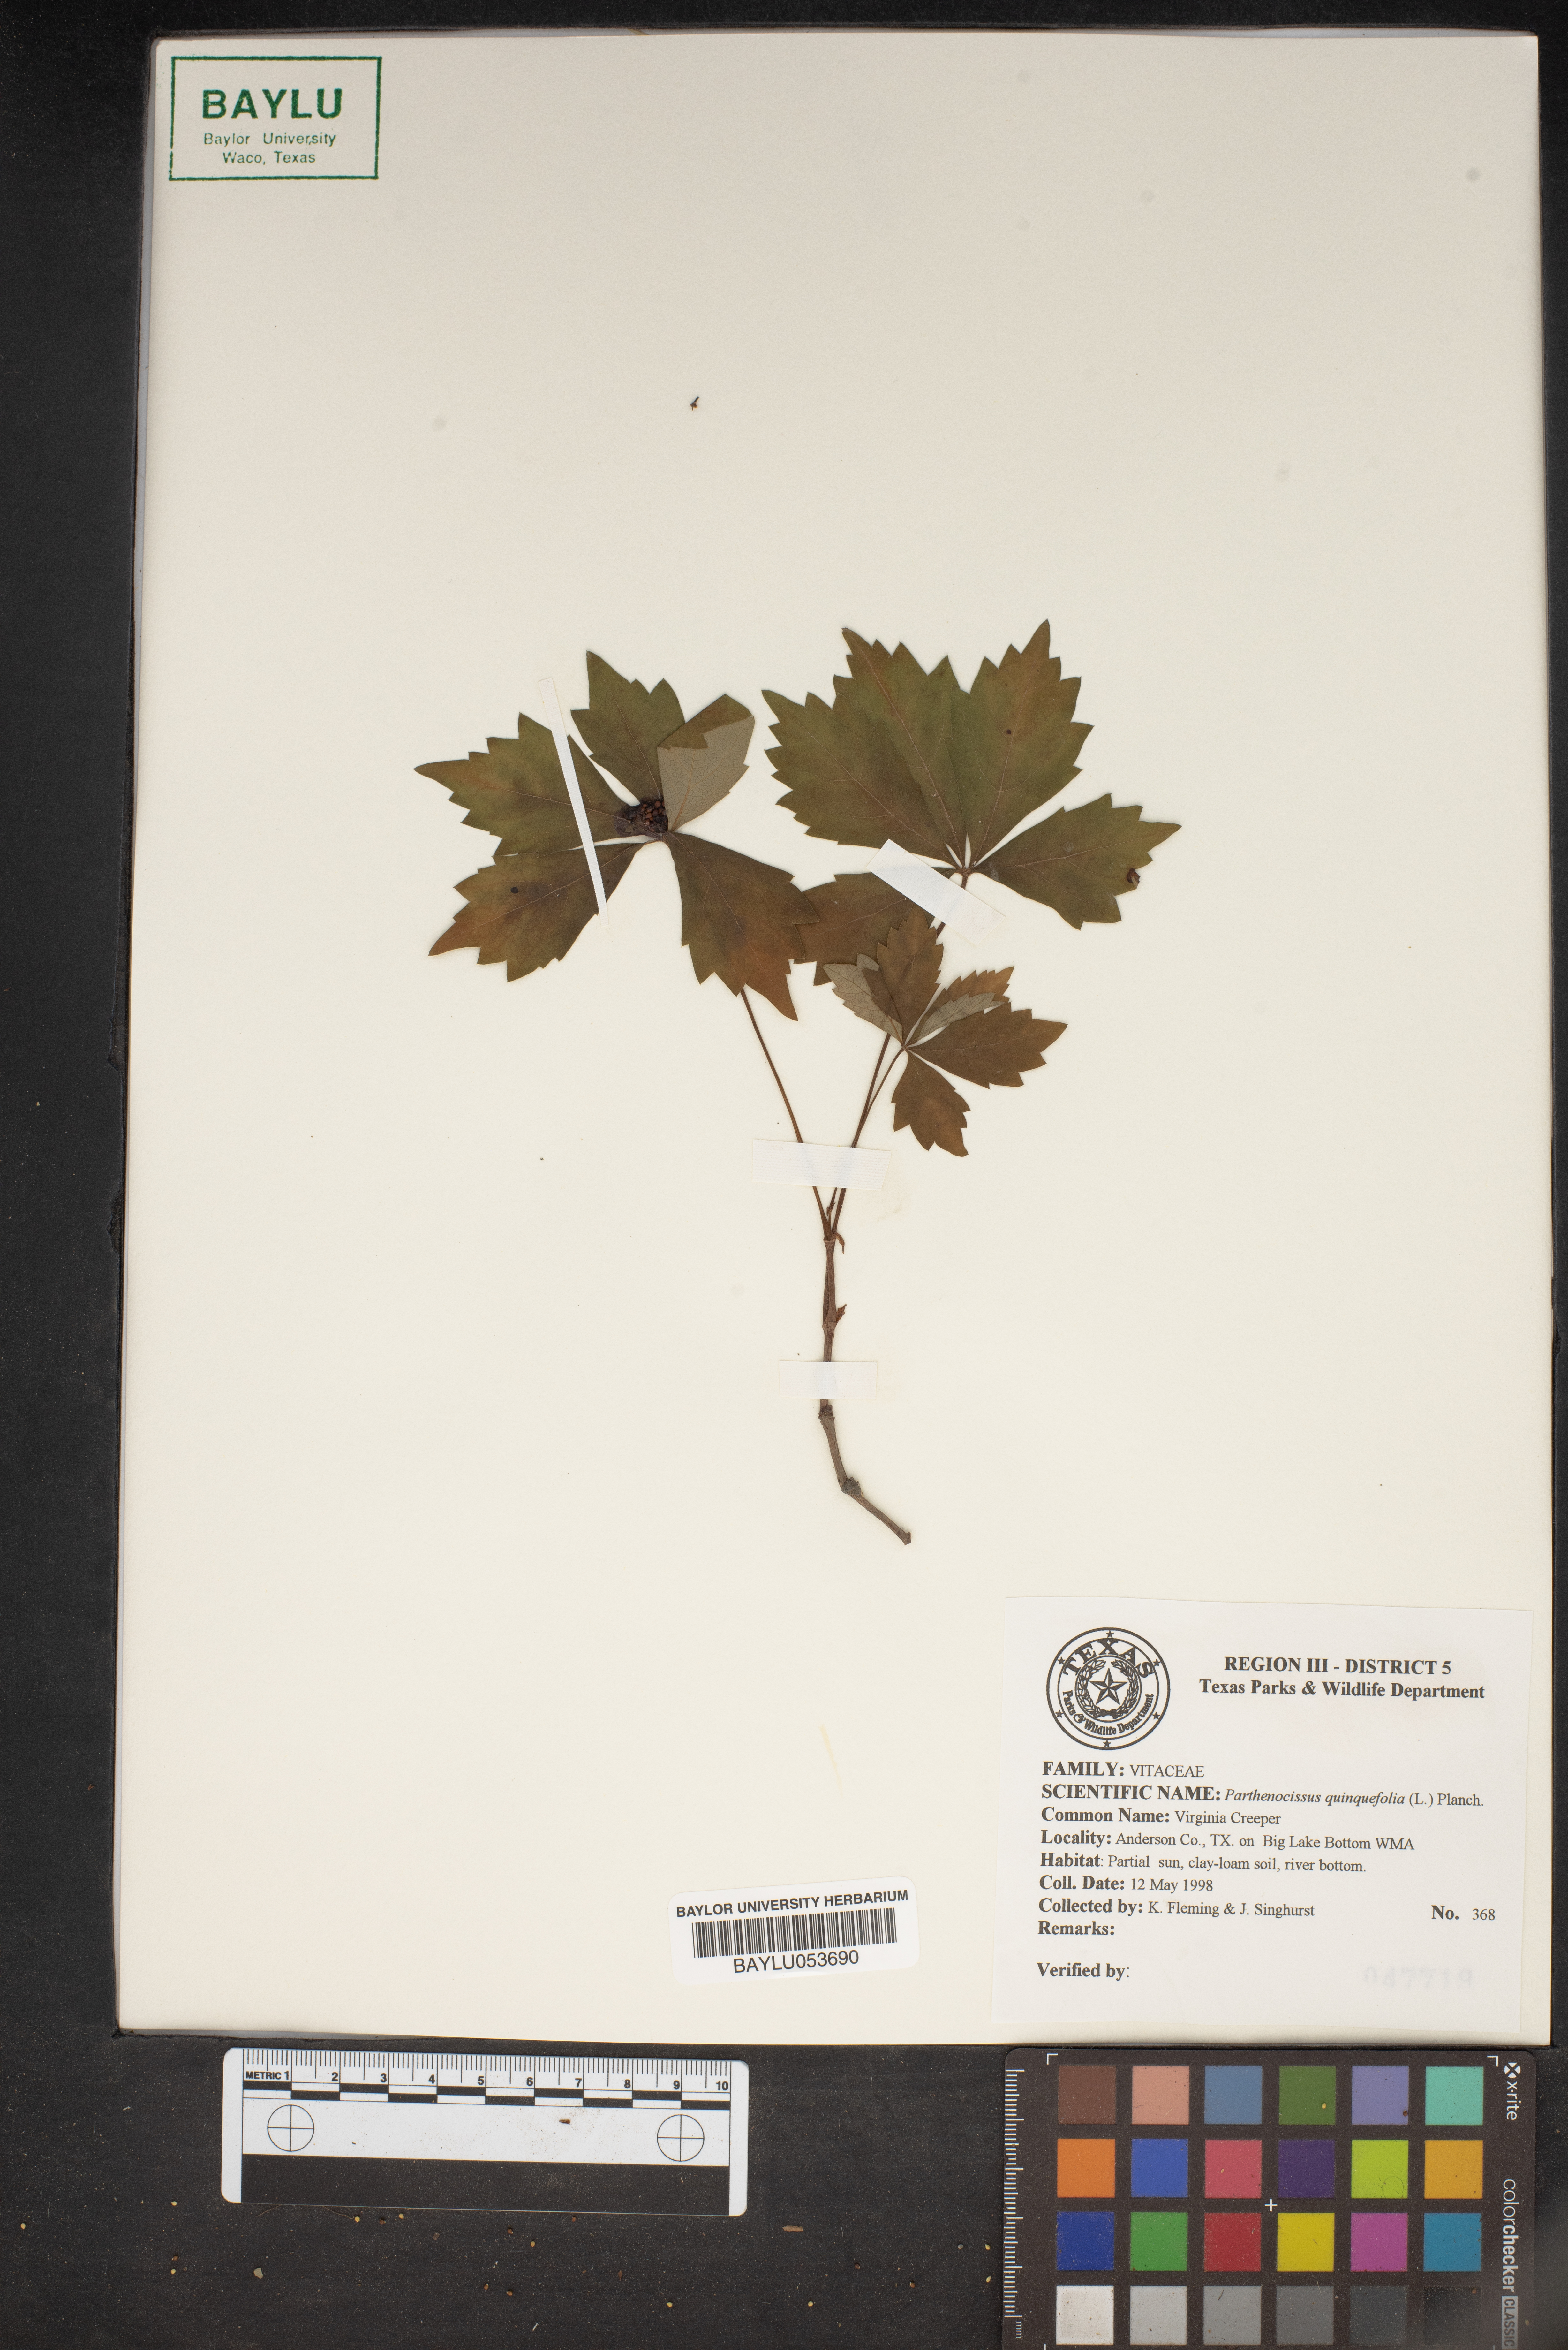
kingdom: Plantae
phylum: Tracheophyta
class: Magnoliopsida
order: Vitales
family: Vitaceae
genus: Parthenocissus
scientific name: Parthenocissus quinquefolia
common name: Virginia-creeper
